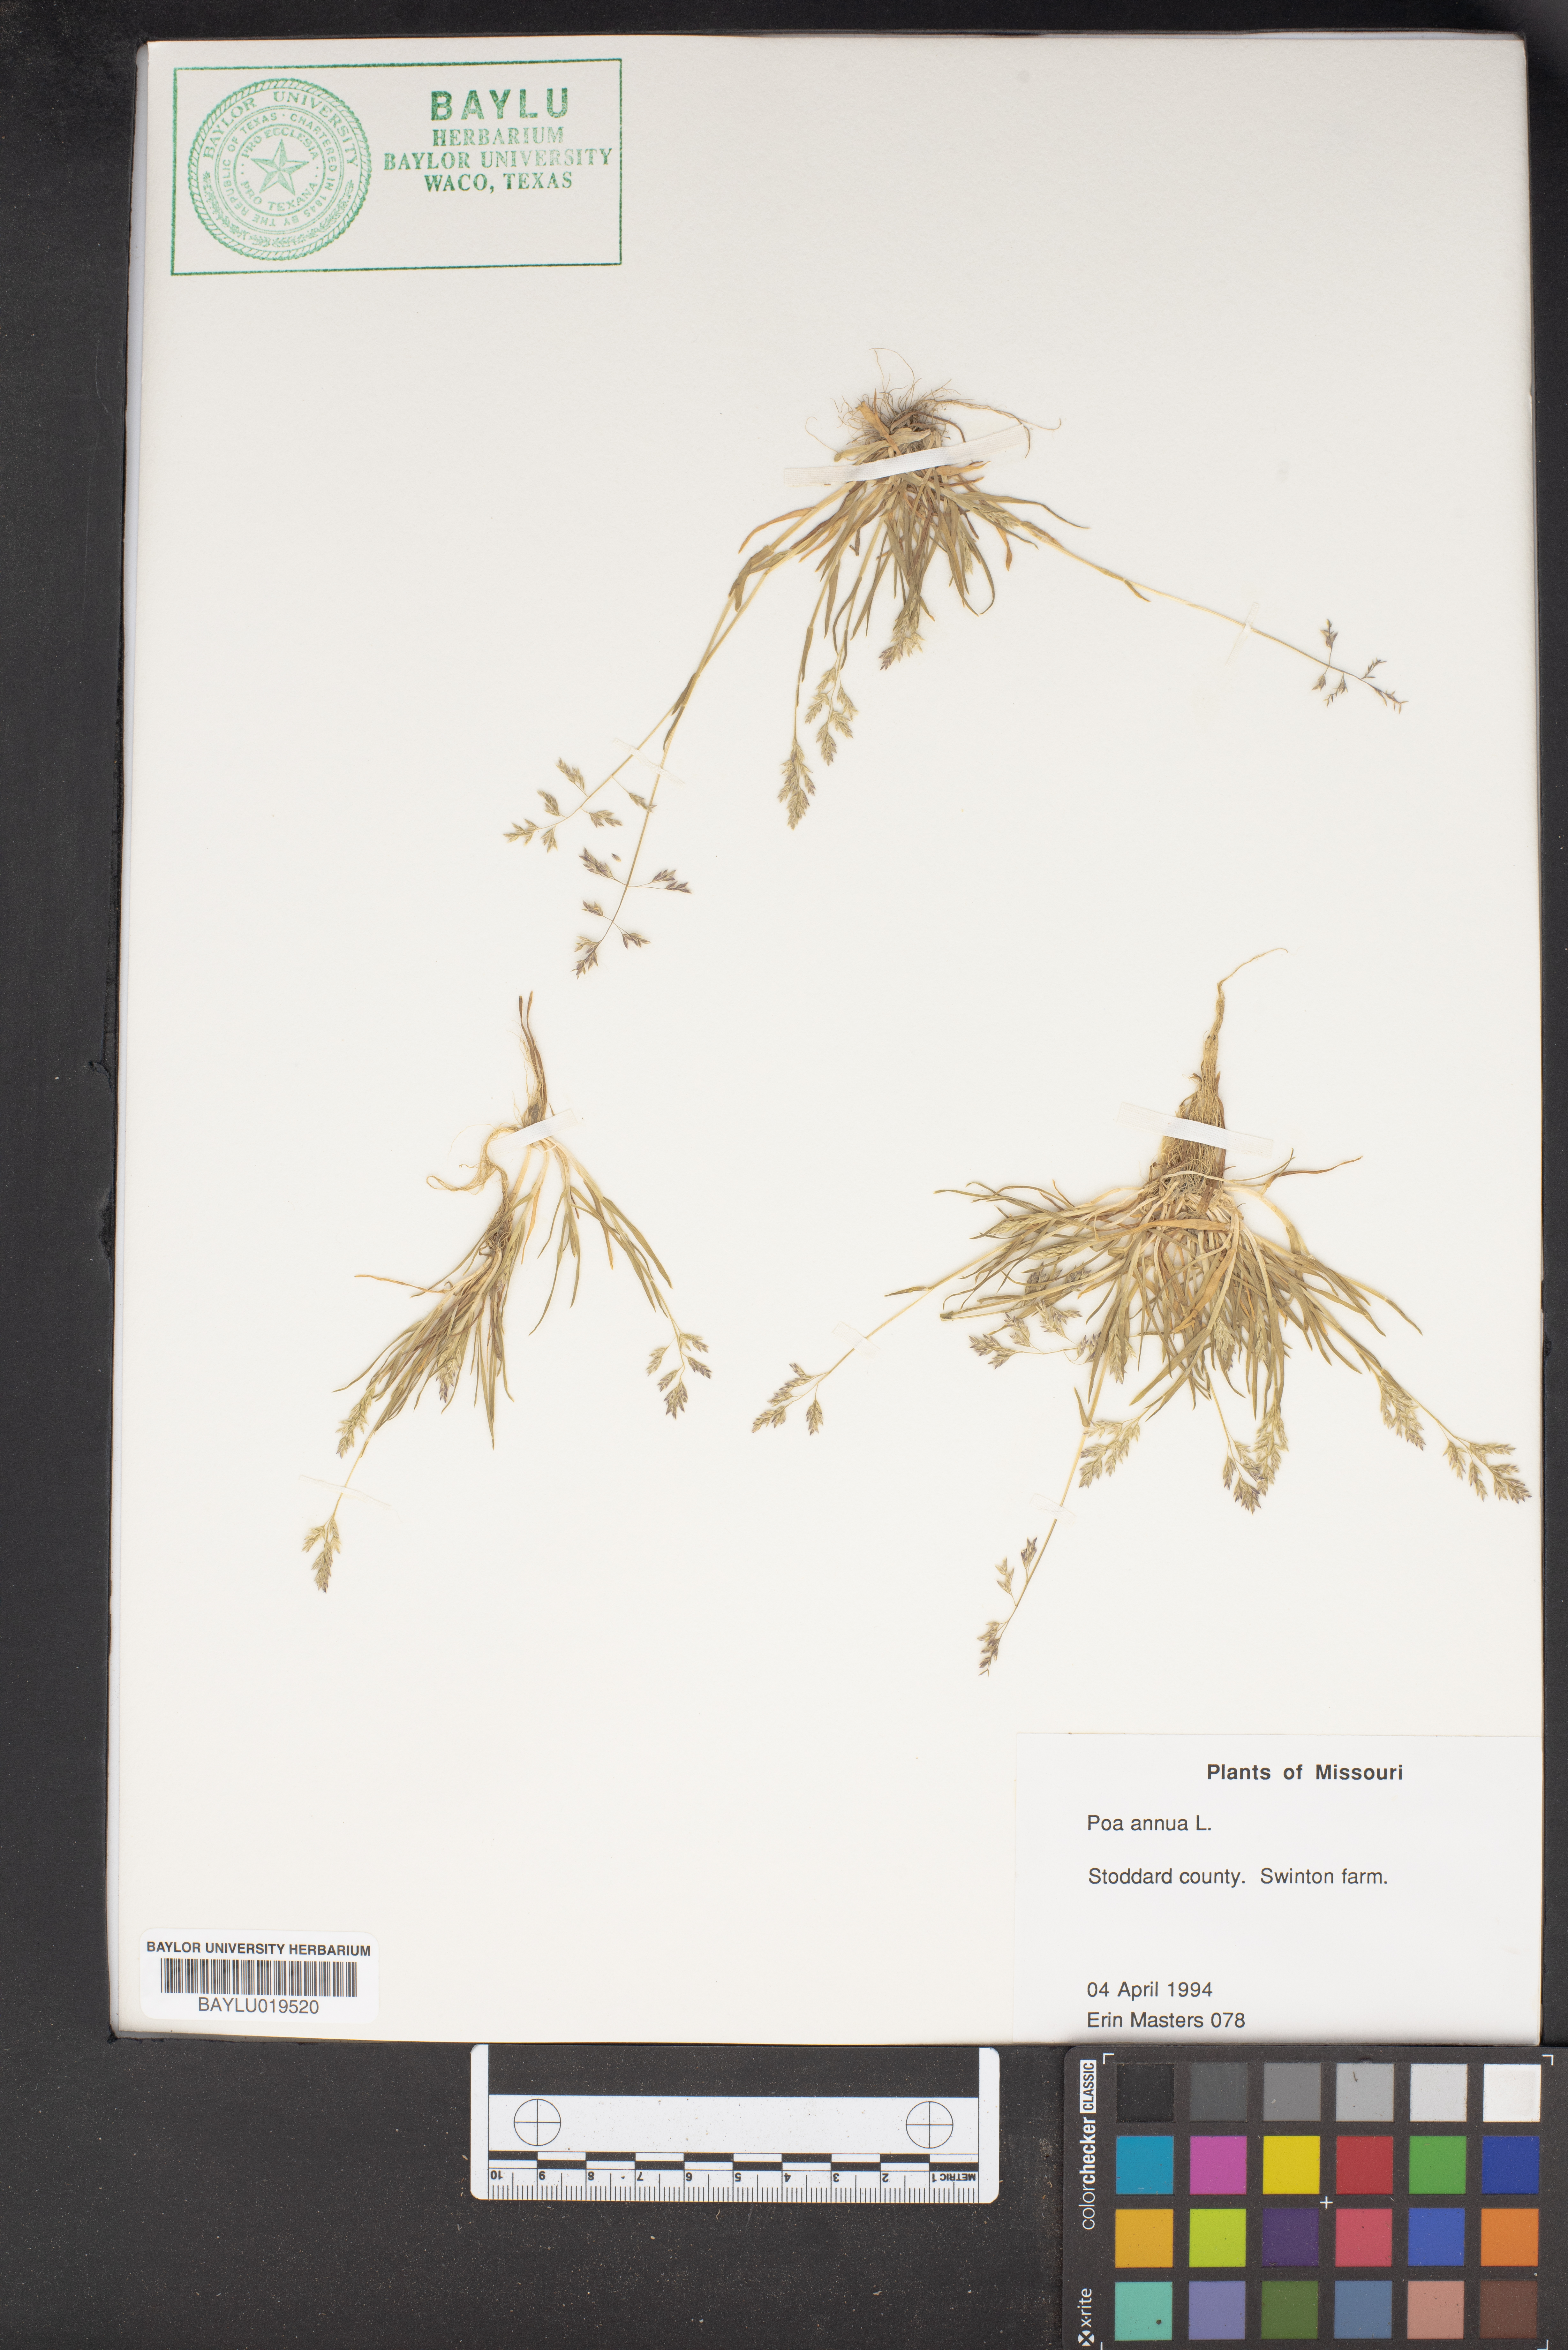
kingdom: Plantae
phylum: Tracheophyta
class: Liliopsida
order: Poales
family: Poaceae
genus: Poa
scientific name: Poa annua
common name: Annual bluegrass
